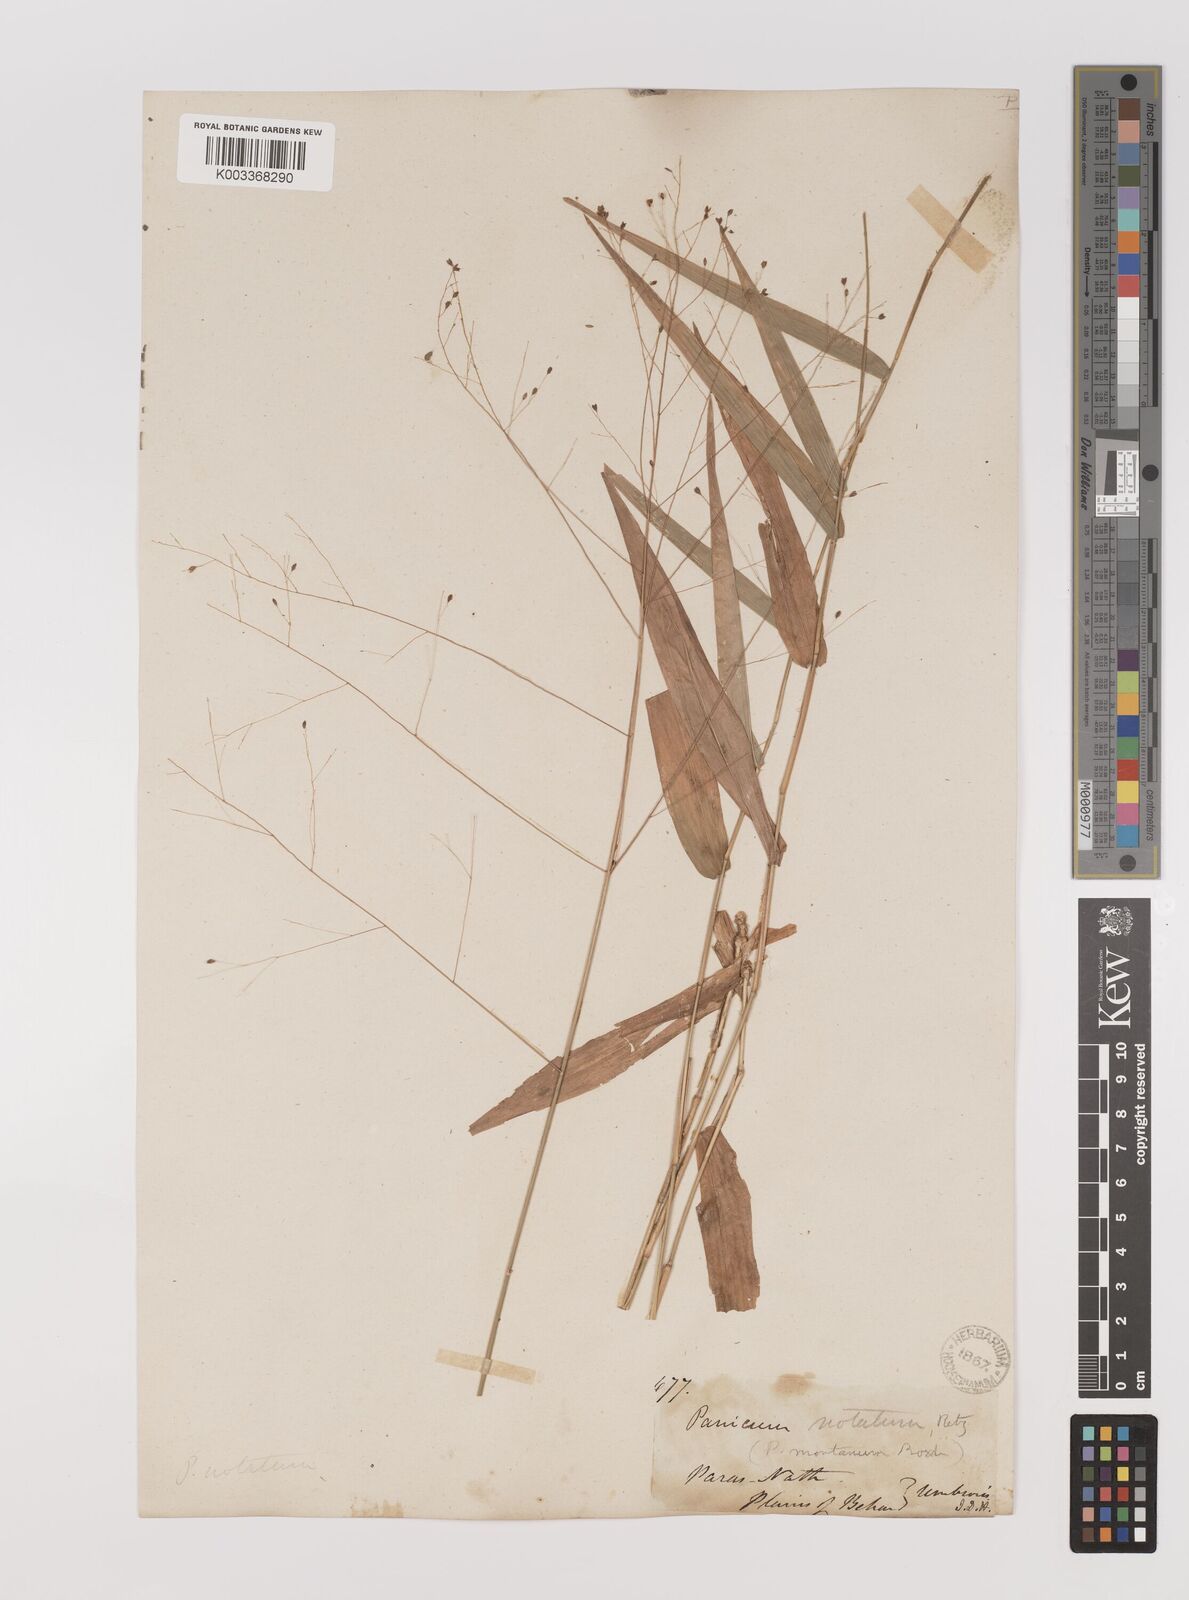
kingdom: Plantae
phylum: Tracheophyta
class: Liliopsida
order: Poales
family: Poaceae
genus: Panicum
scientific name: Panicum notatum
